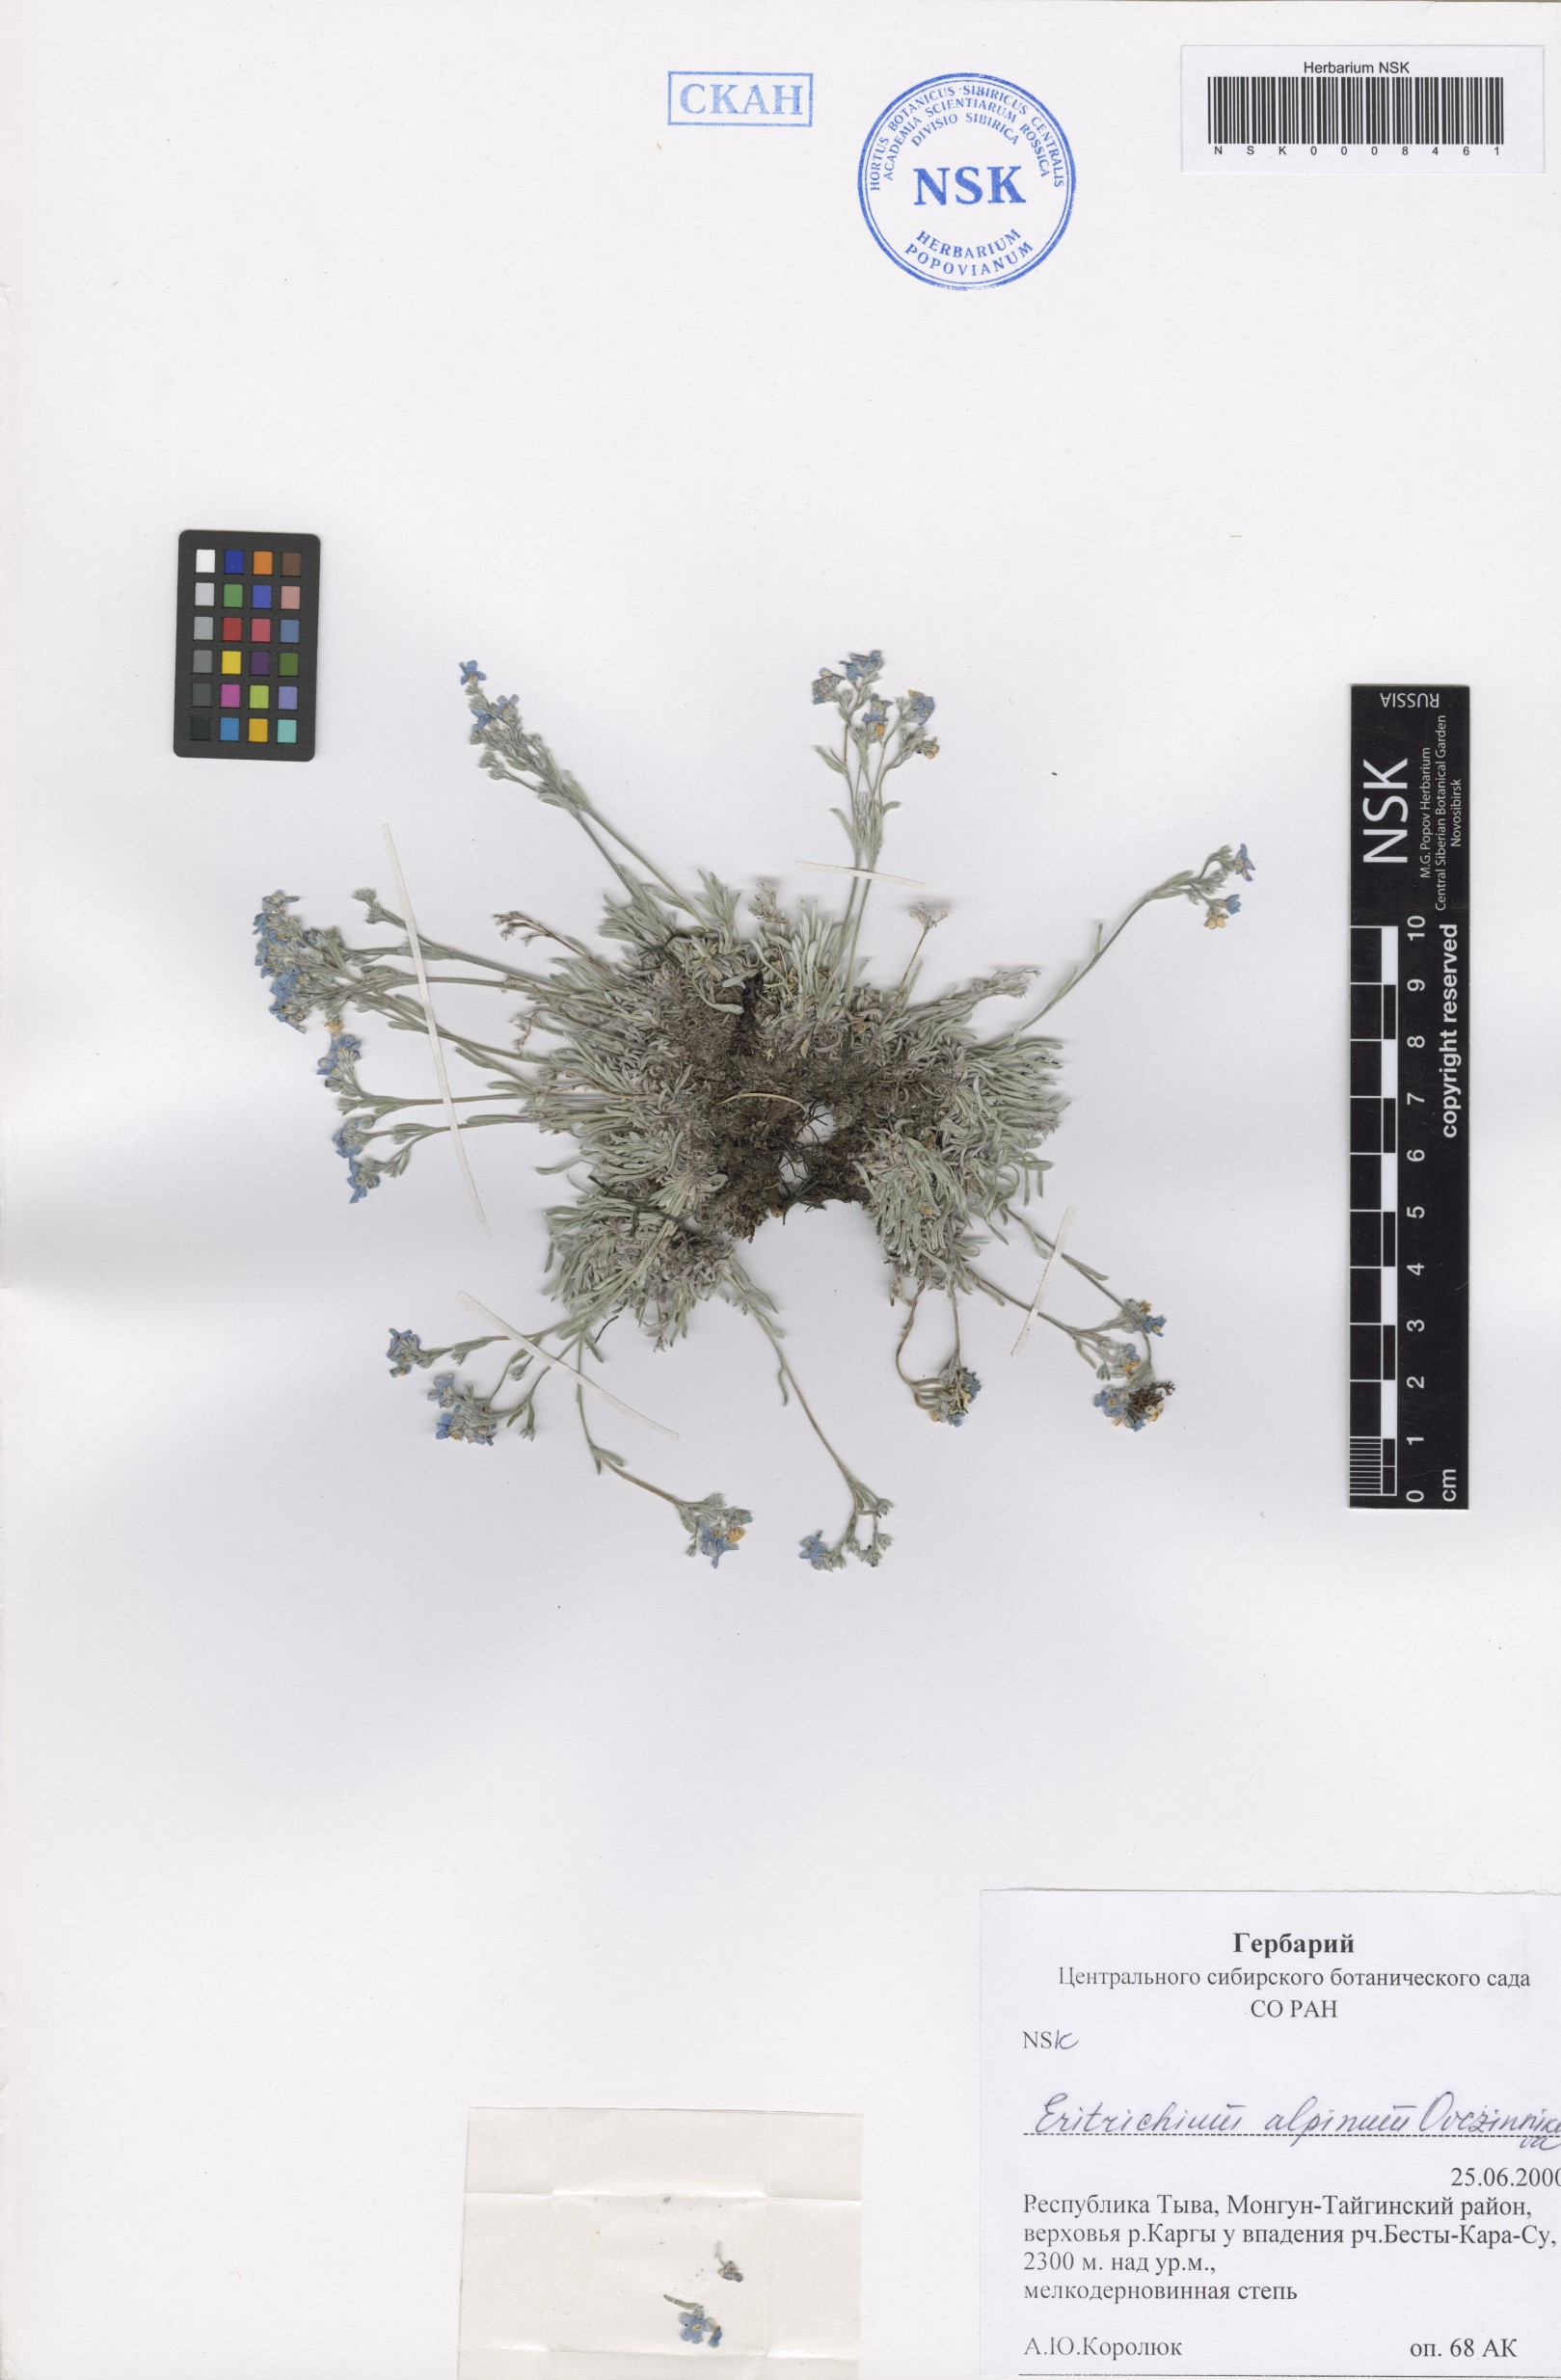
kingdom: Plantae
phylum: Tracheophyta
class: Magnoliopsida
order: Boraginales
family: Boraginaceae
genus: Eritrichium
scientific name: Eritrichium alpinum
